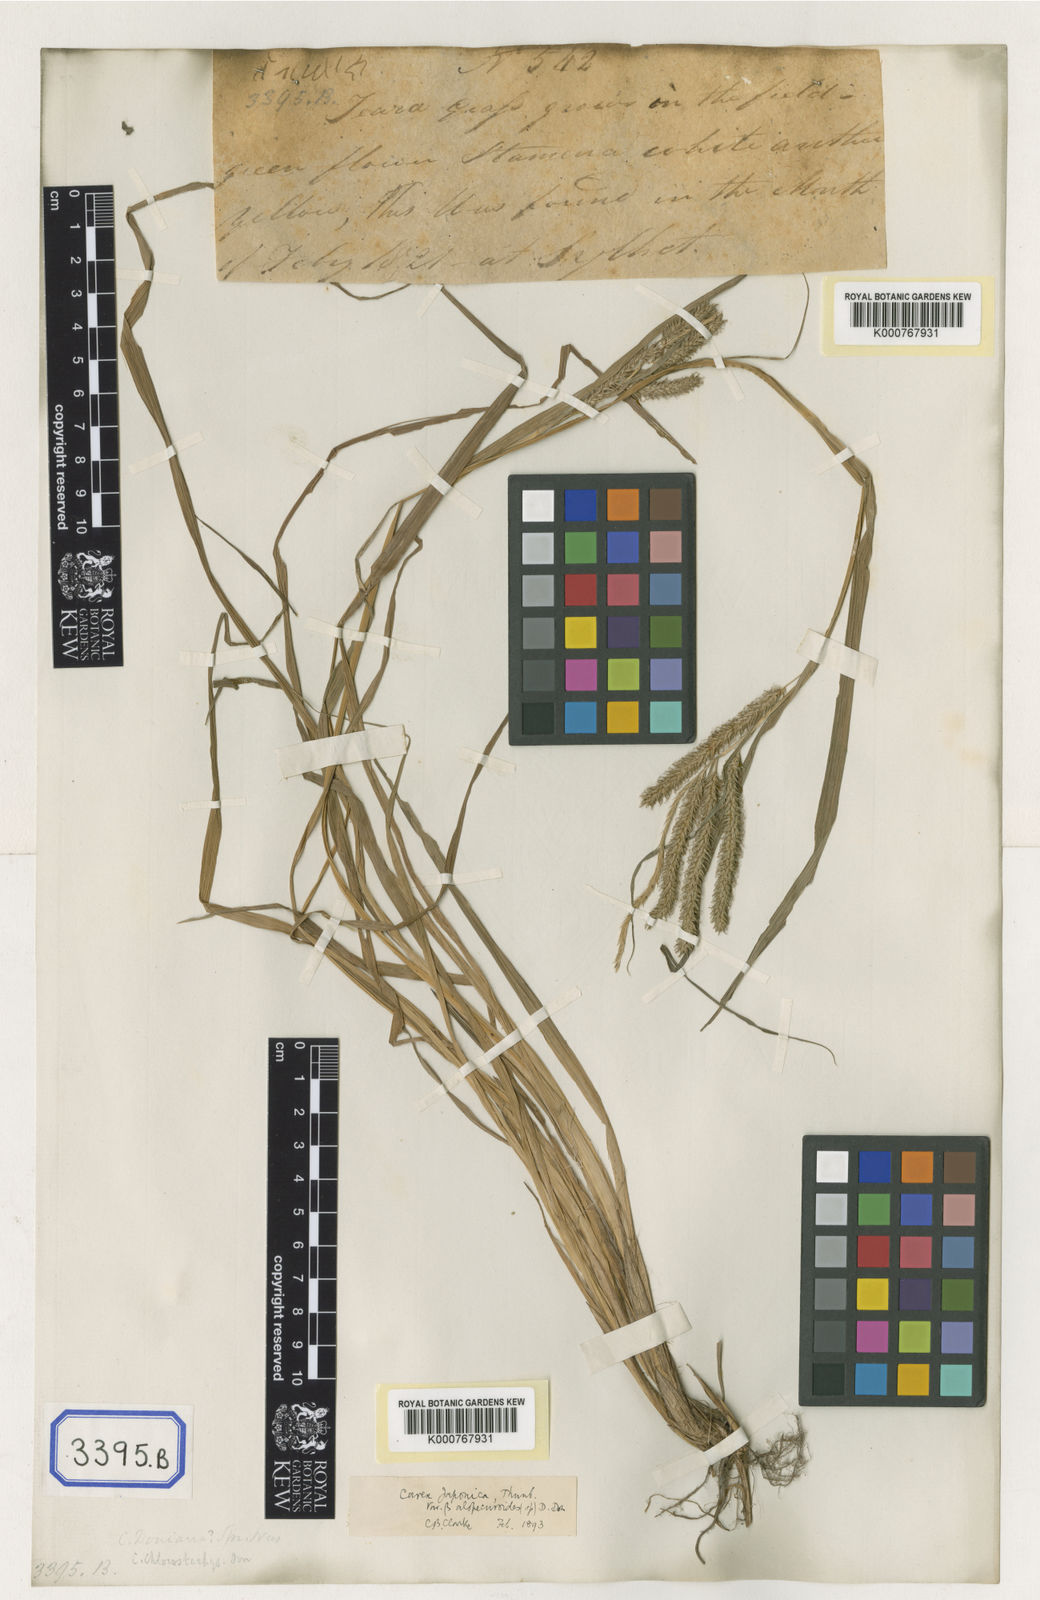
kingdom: Plantae
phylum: Tracheophyta
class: Liliopsida
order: Poales
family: Cyperaceae
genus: Carex
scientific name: Carex
